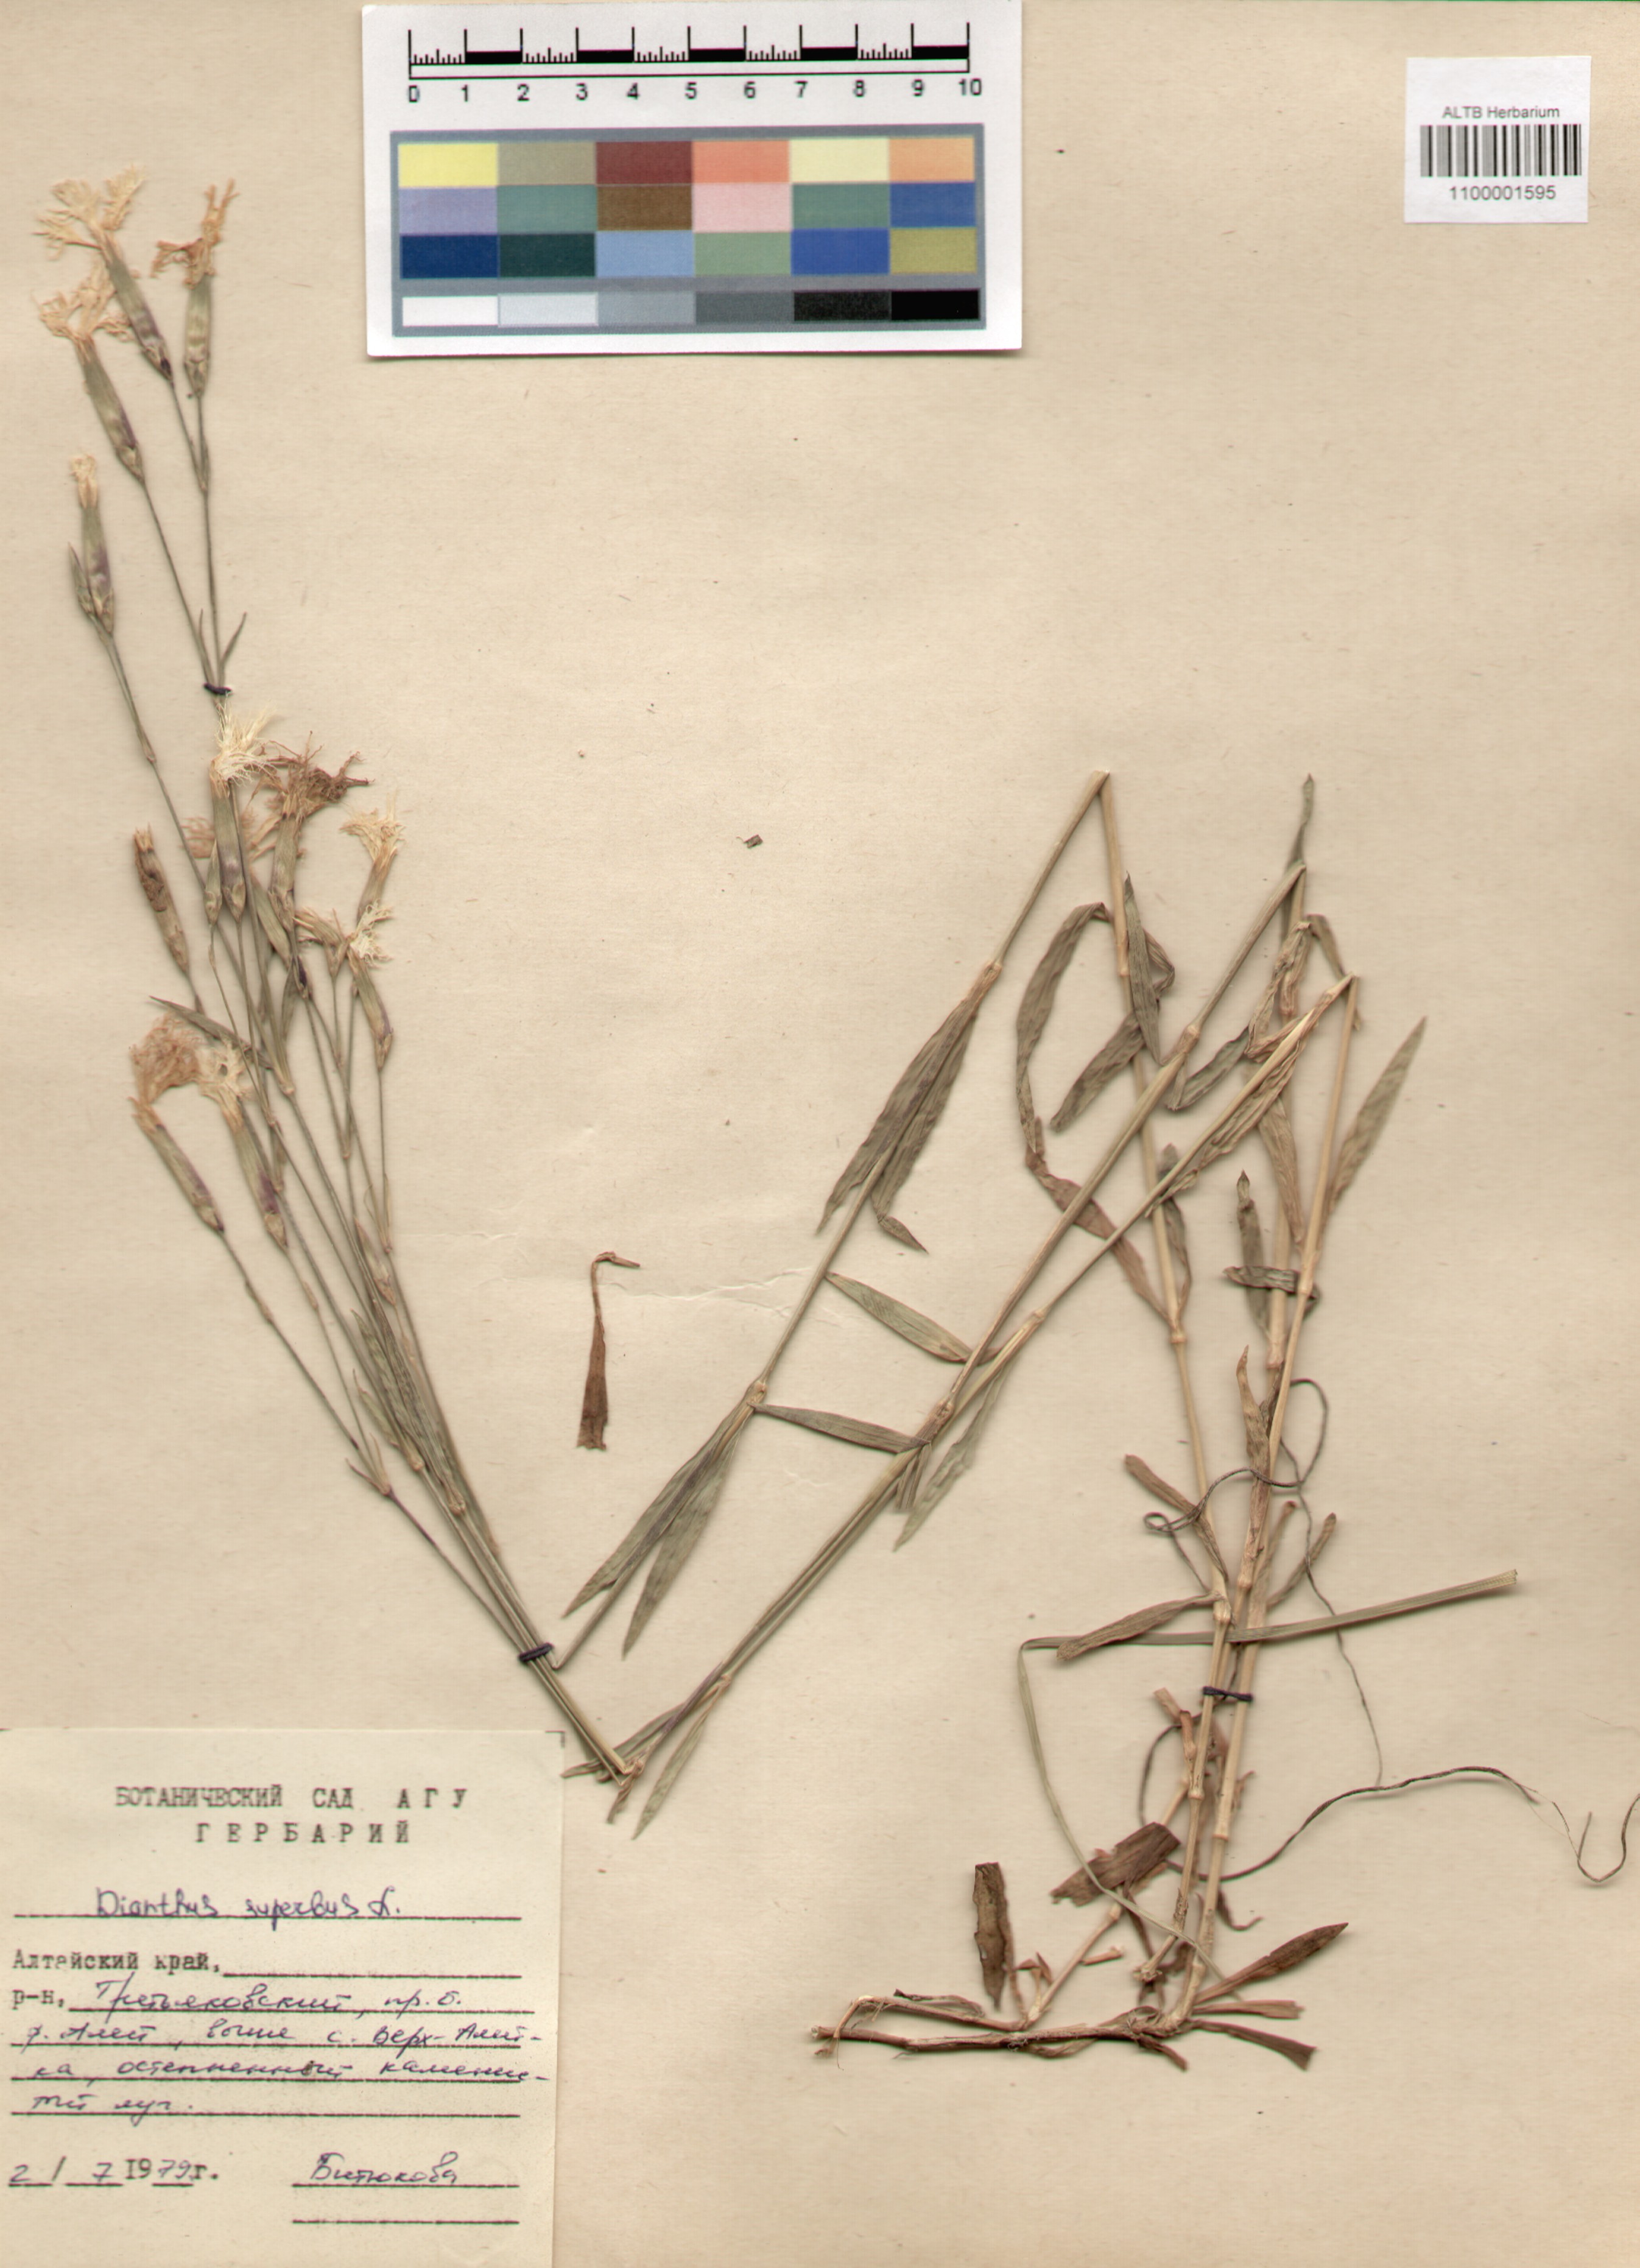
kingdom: Plantae
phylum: Tracheophyta
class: Magnoliopsida
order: Caryophyllales
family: Caryophyllaceae
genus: Dianthus
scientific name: Dianthus superbus
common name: Fringed pink
